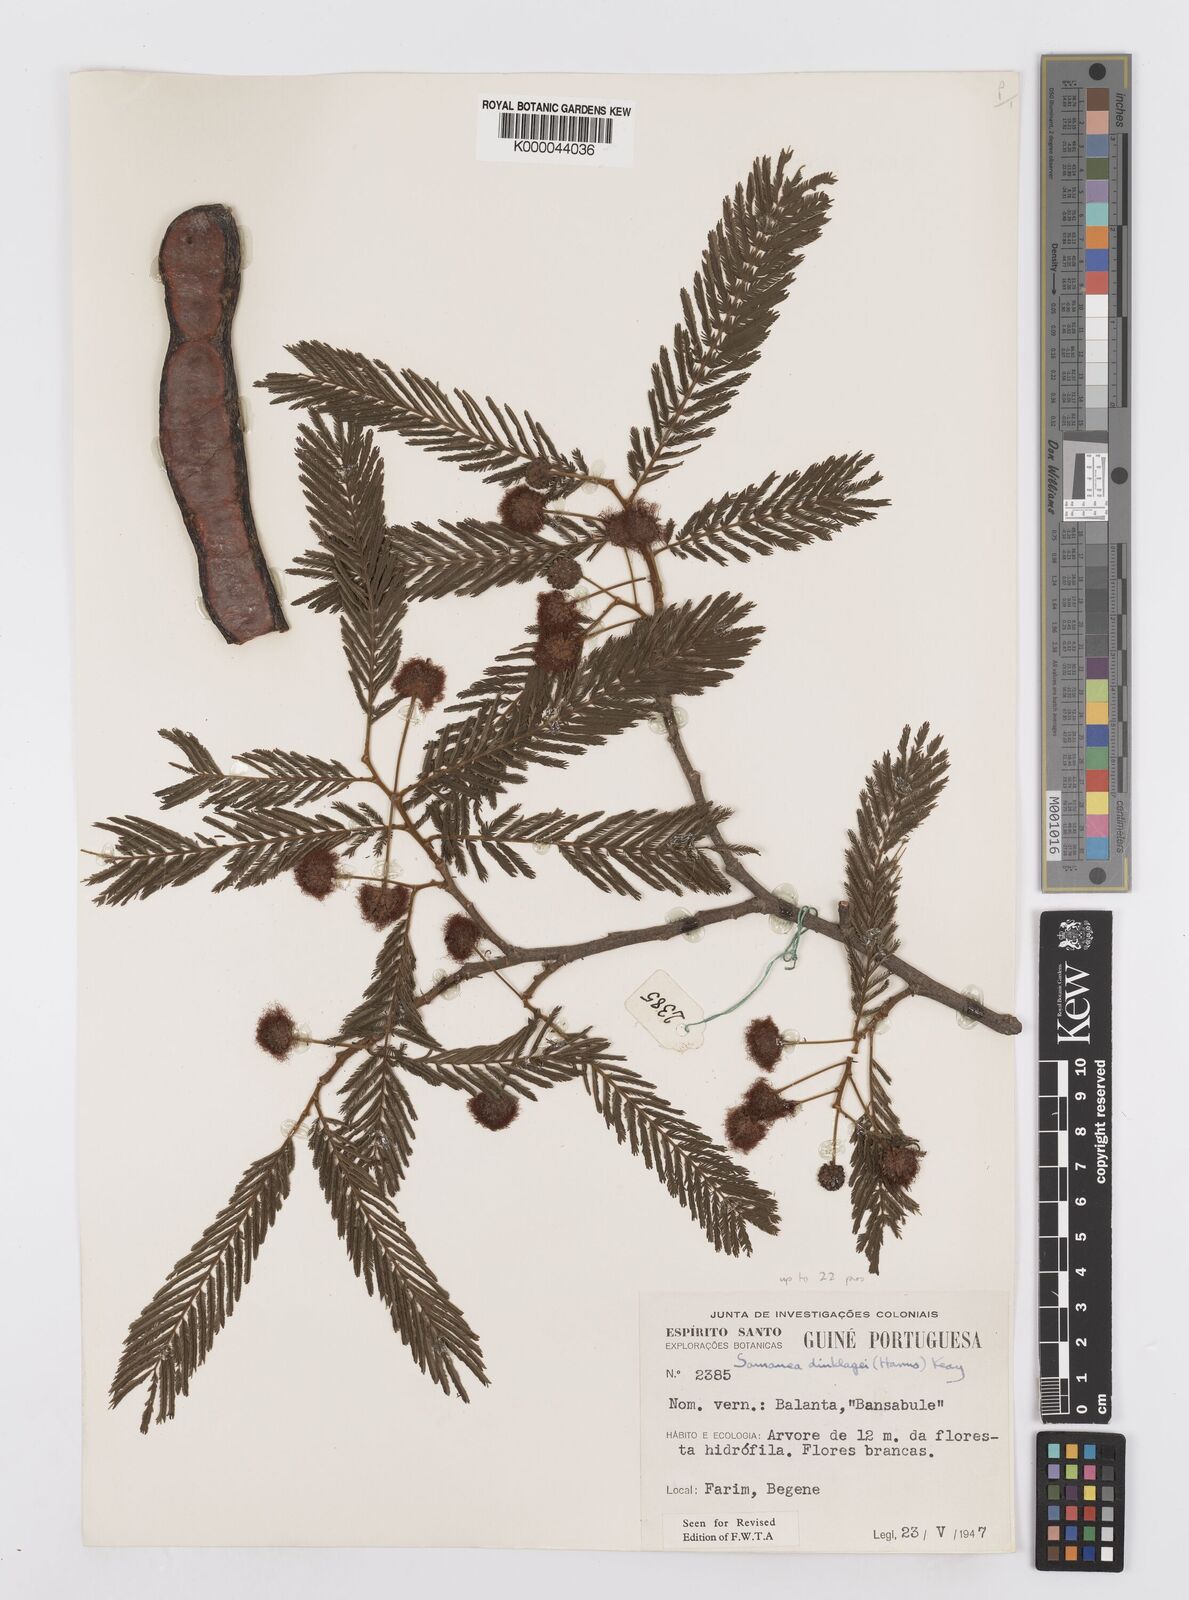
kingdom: Plantae
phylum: Tracheophyta
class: Magnoliopsida
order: Fabales
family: Fabaceae
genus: Albizia
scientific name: Albizia dinklagei
